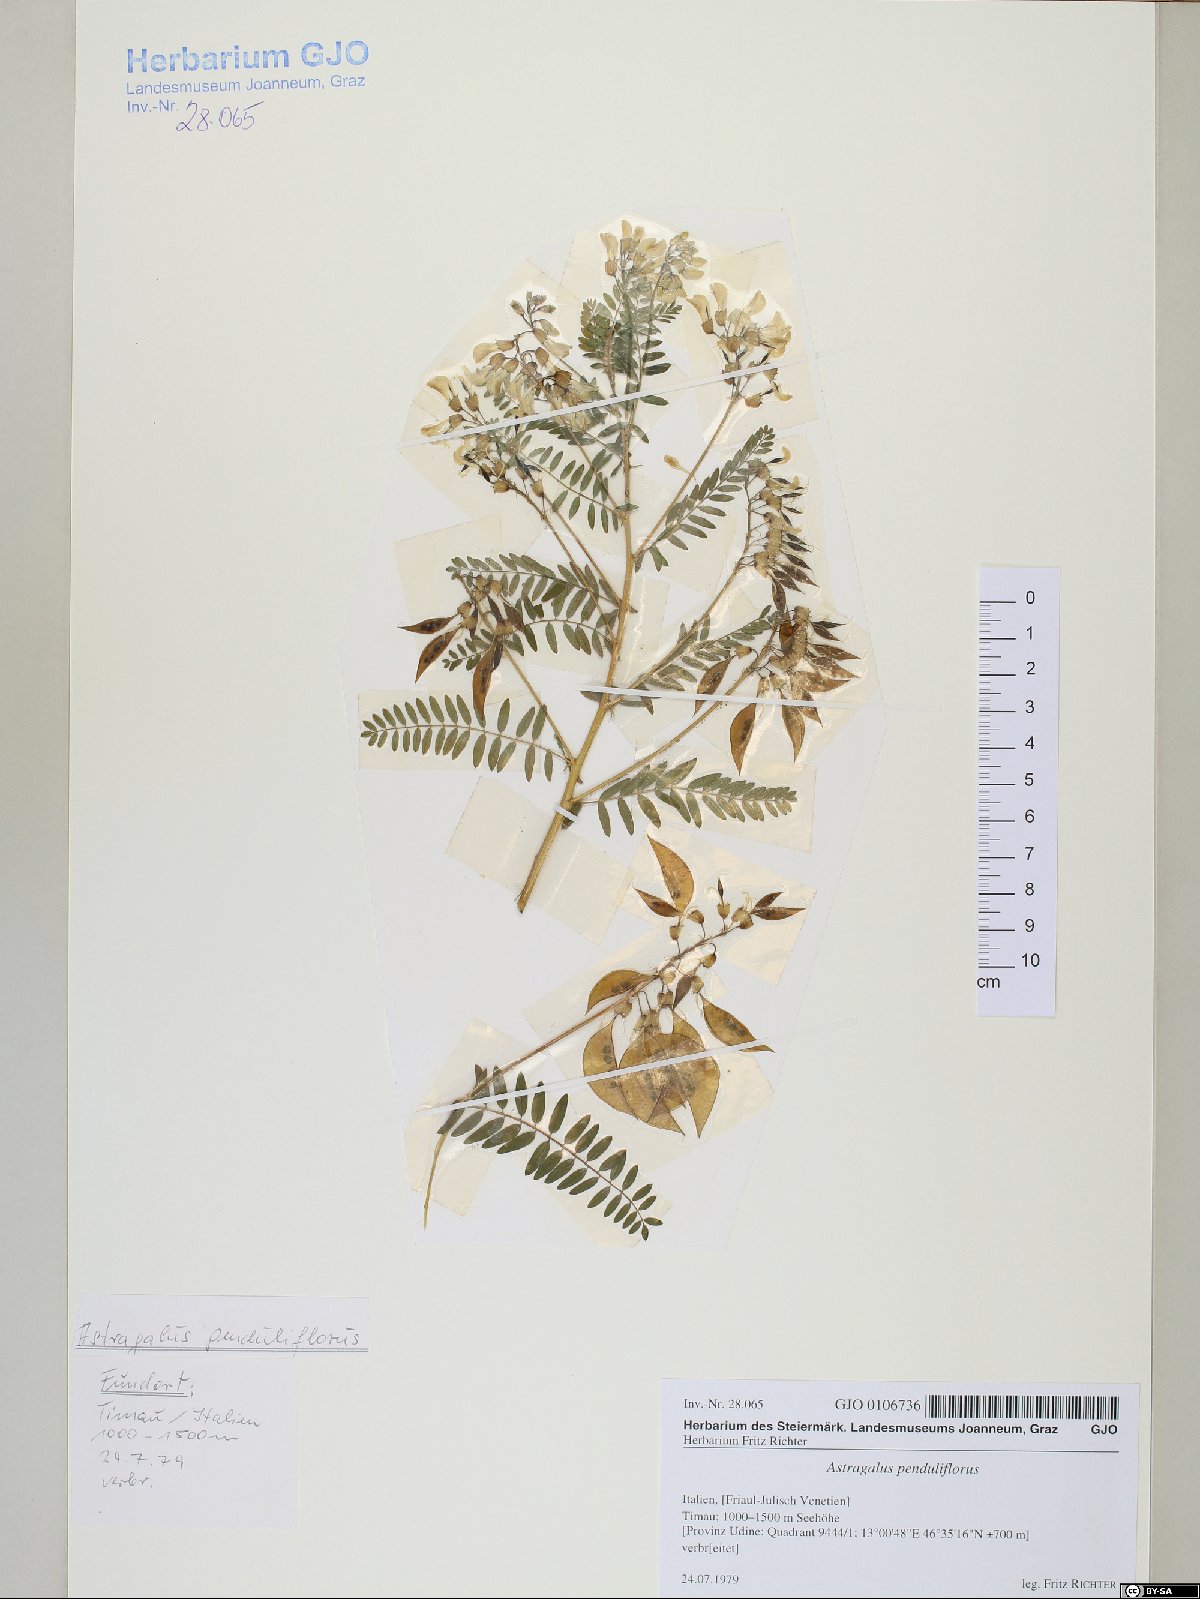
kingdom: Plantae
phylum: Tracheophyta
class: Magnoliopsida
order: Fabales
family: Fabaceae
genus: Astragalus
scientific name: Astragalus penduliflorus
